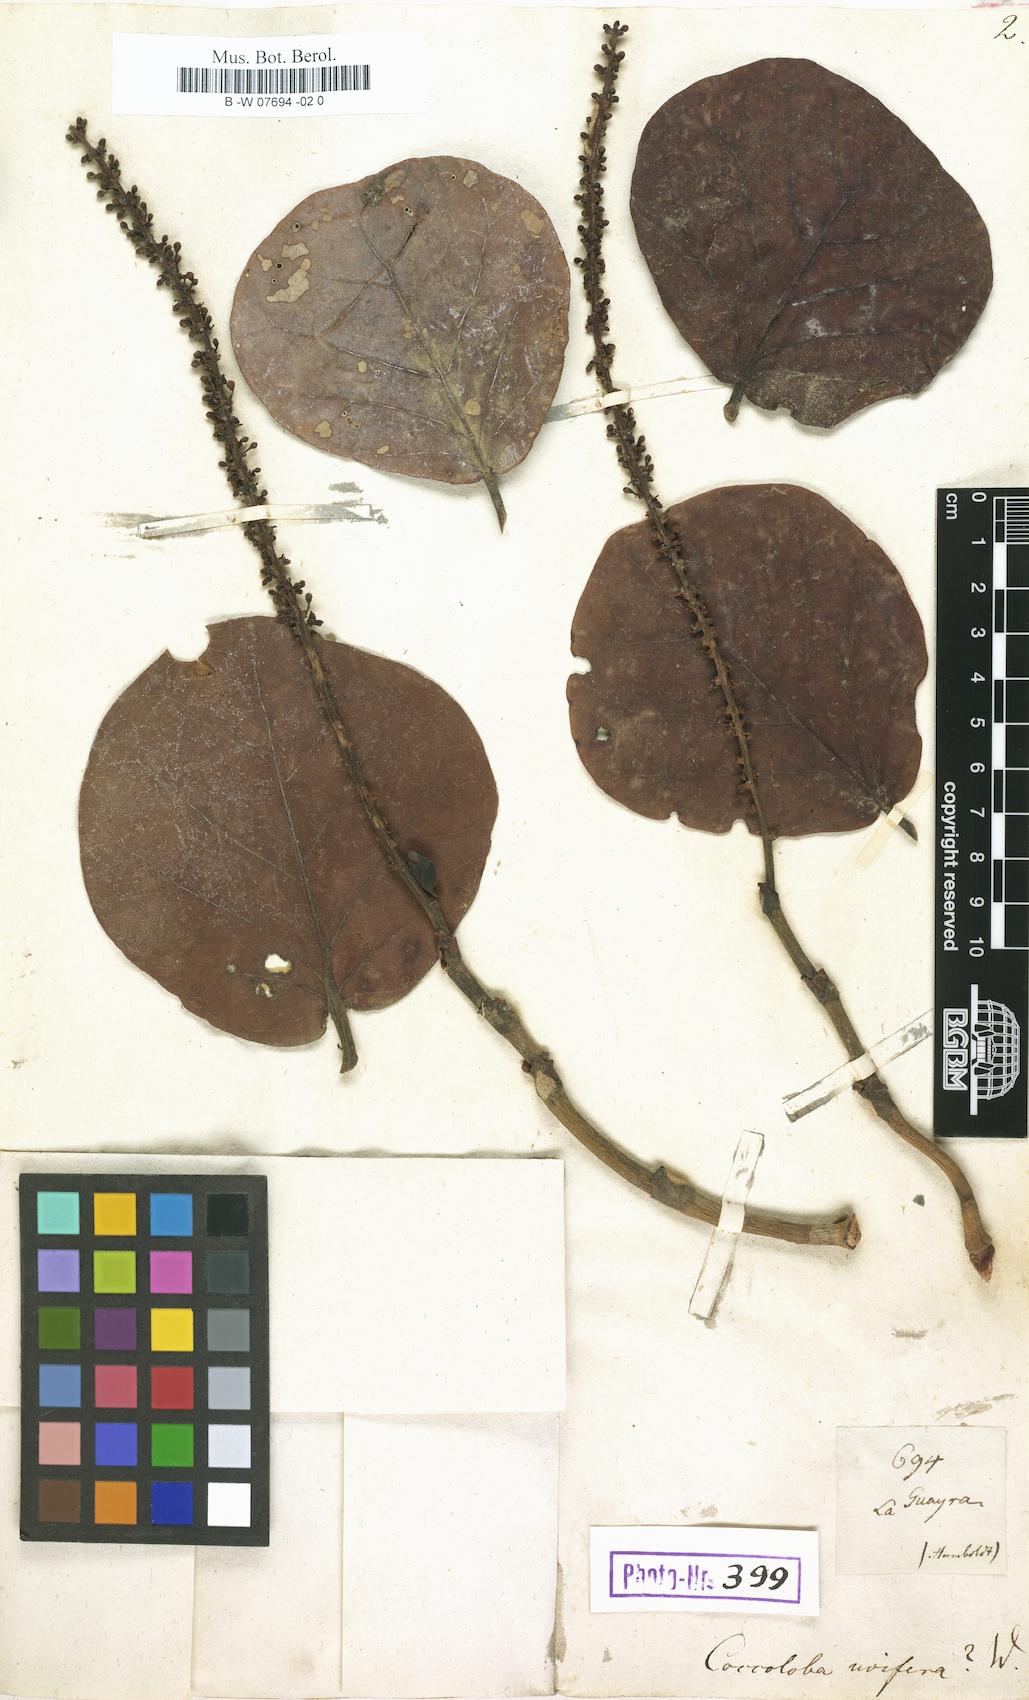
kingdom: Plantae
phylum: Tracheophyta
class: Magnoliopsida
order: Caryophyllales
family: Polygonaceae
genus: Coccoloba
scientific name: Coccoloba uvifera
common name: Seagrape
